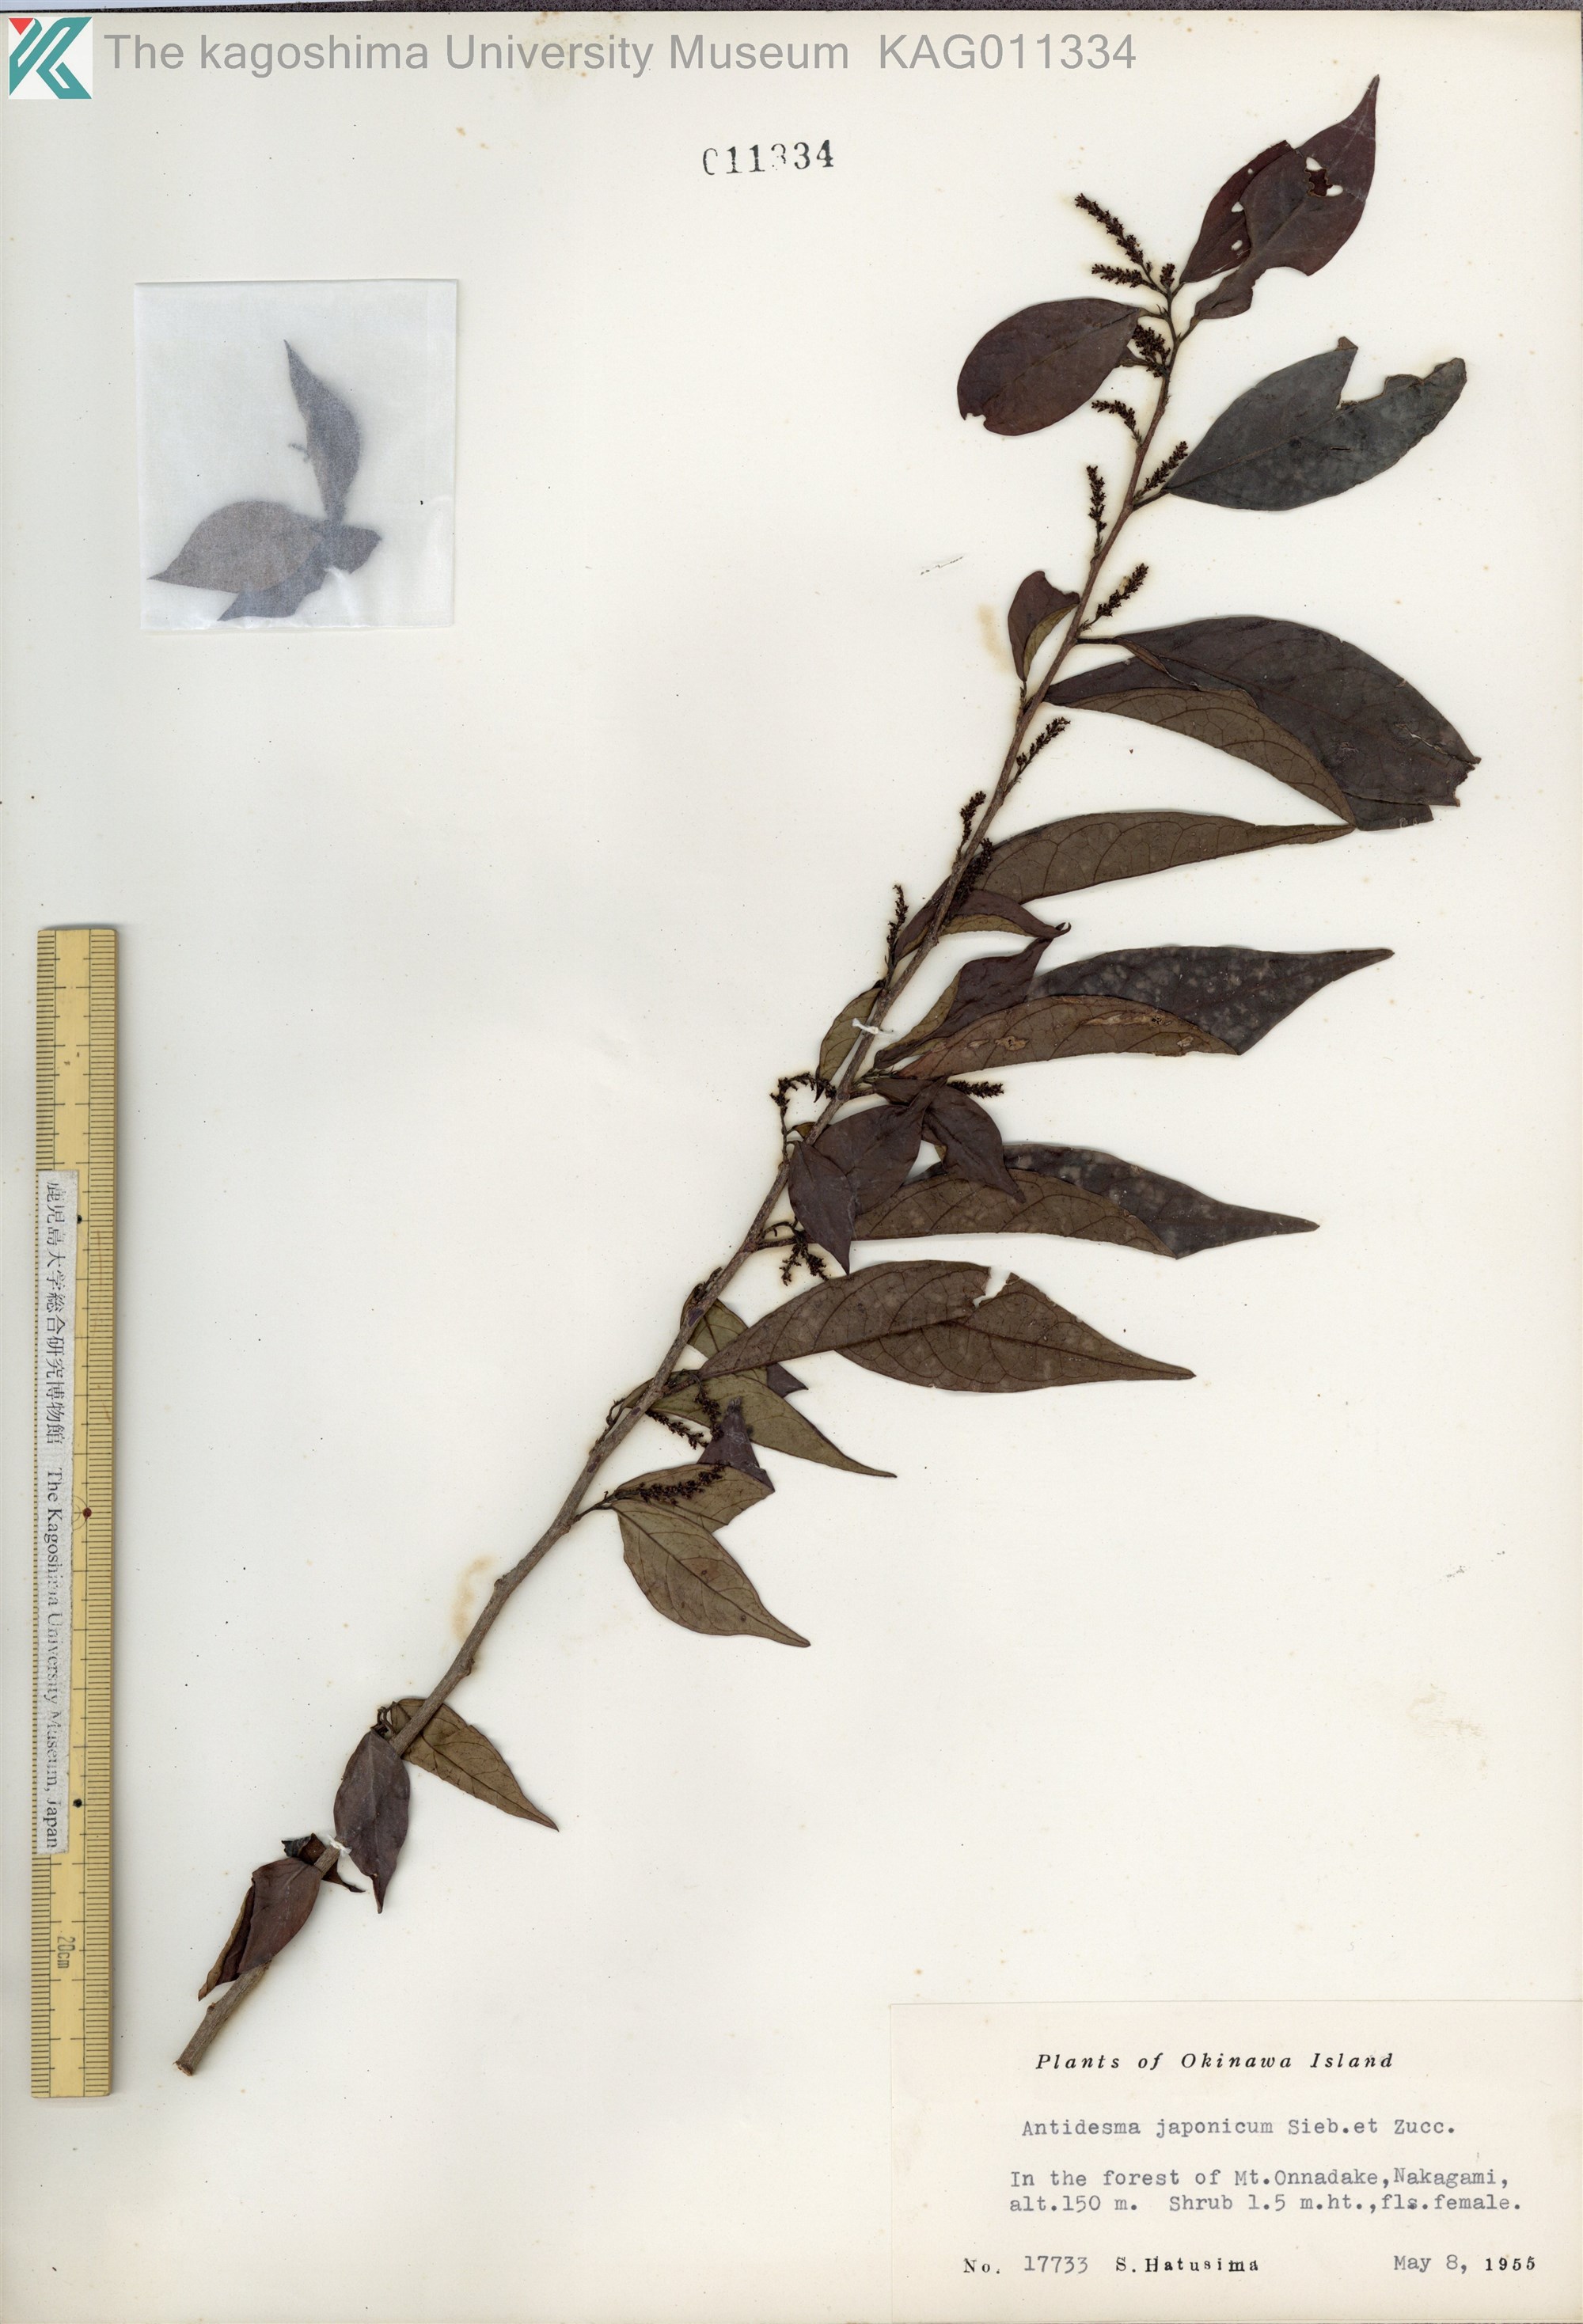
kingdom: Plantae
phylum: Tracheophyta
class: Magnoliopsida
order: Malpighiales
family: Phyllanthaceae
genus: Antidesma
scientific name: Antidesma japonicum
